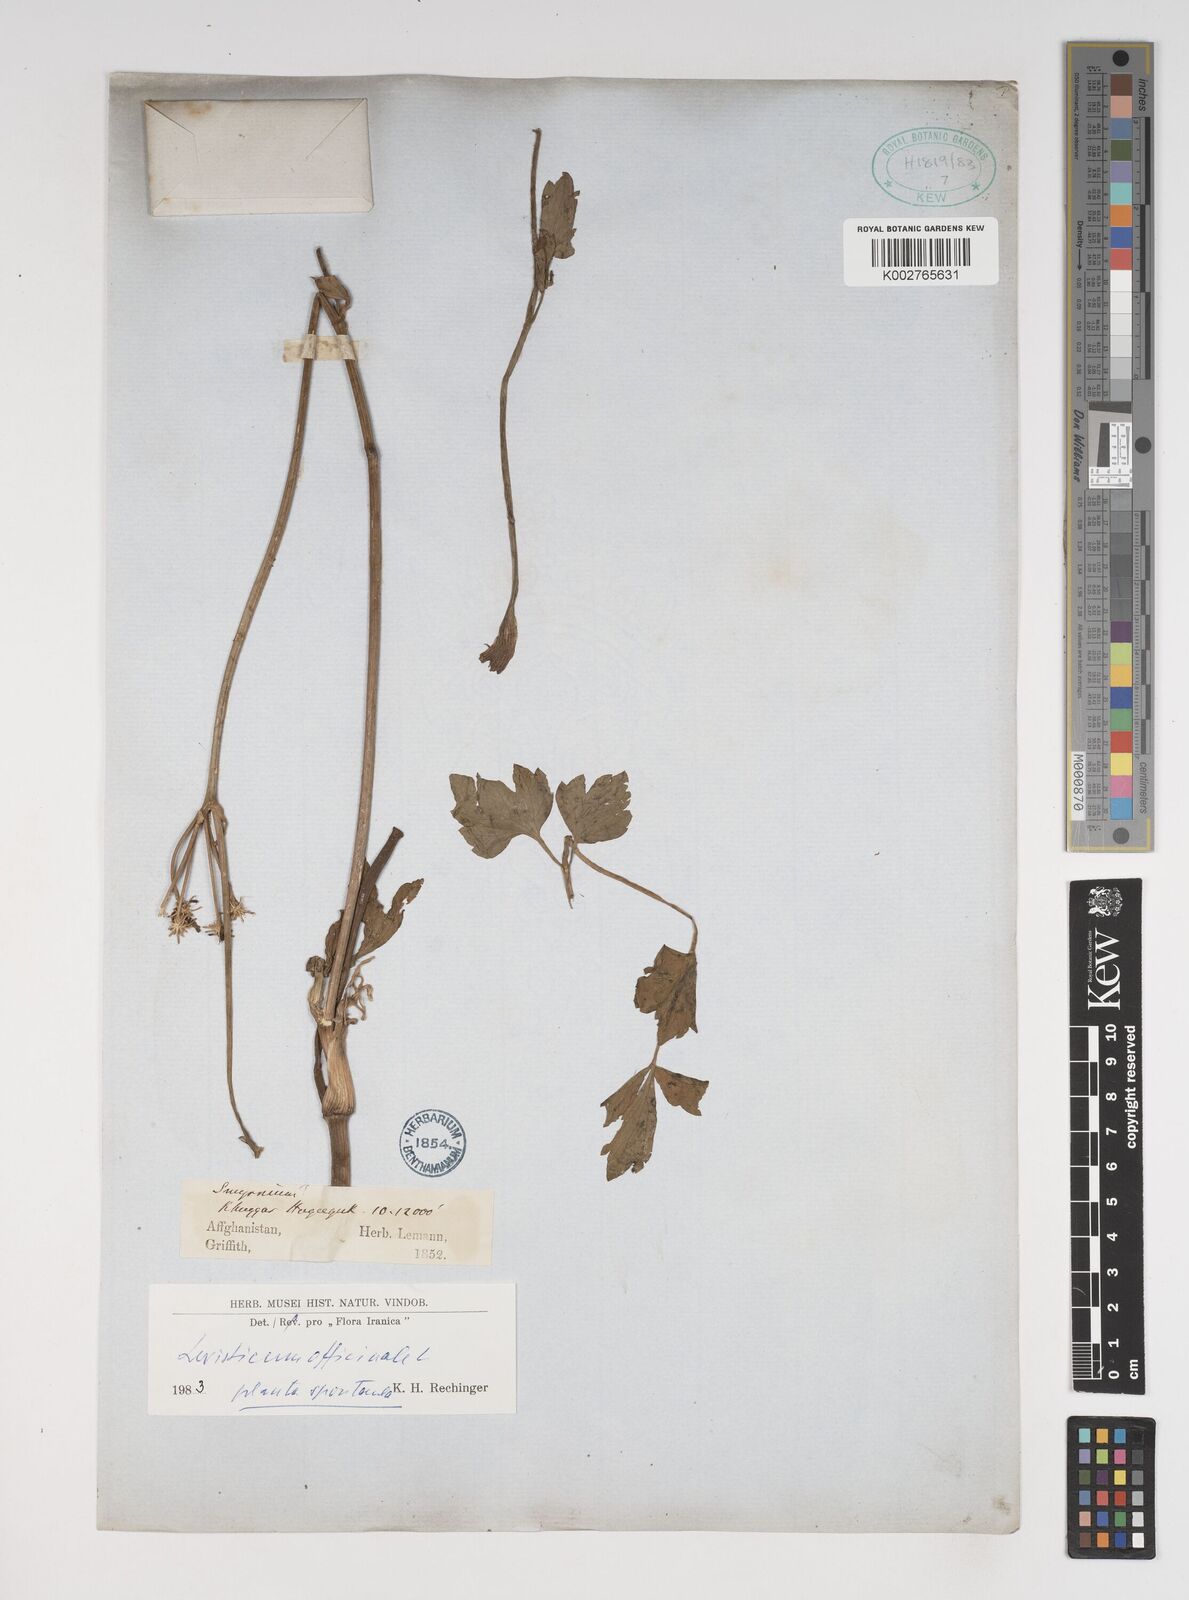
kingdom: Plantae
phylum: Tracheophyta
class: Magnoliopsida
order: Apiales
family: Apiaceae
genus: Levisticum
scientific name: Levisticum officinale
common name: Lovage
